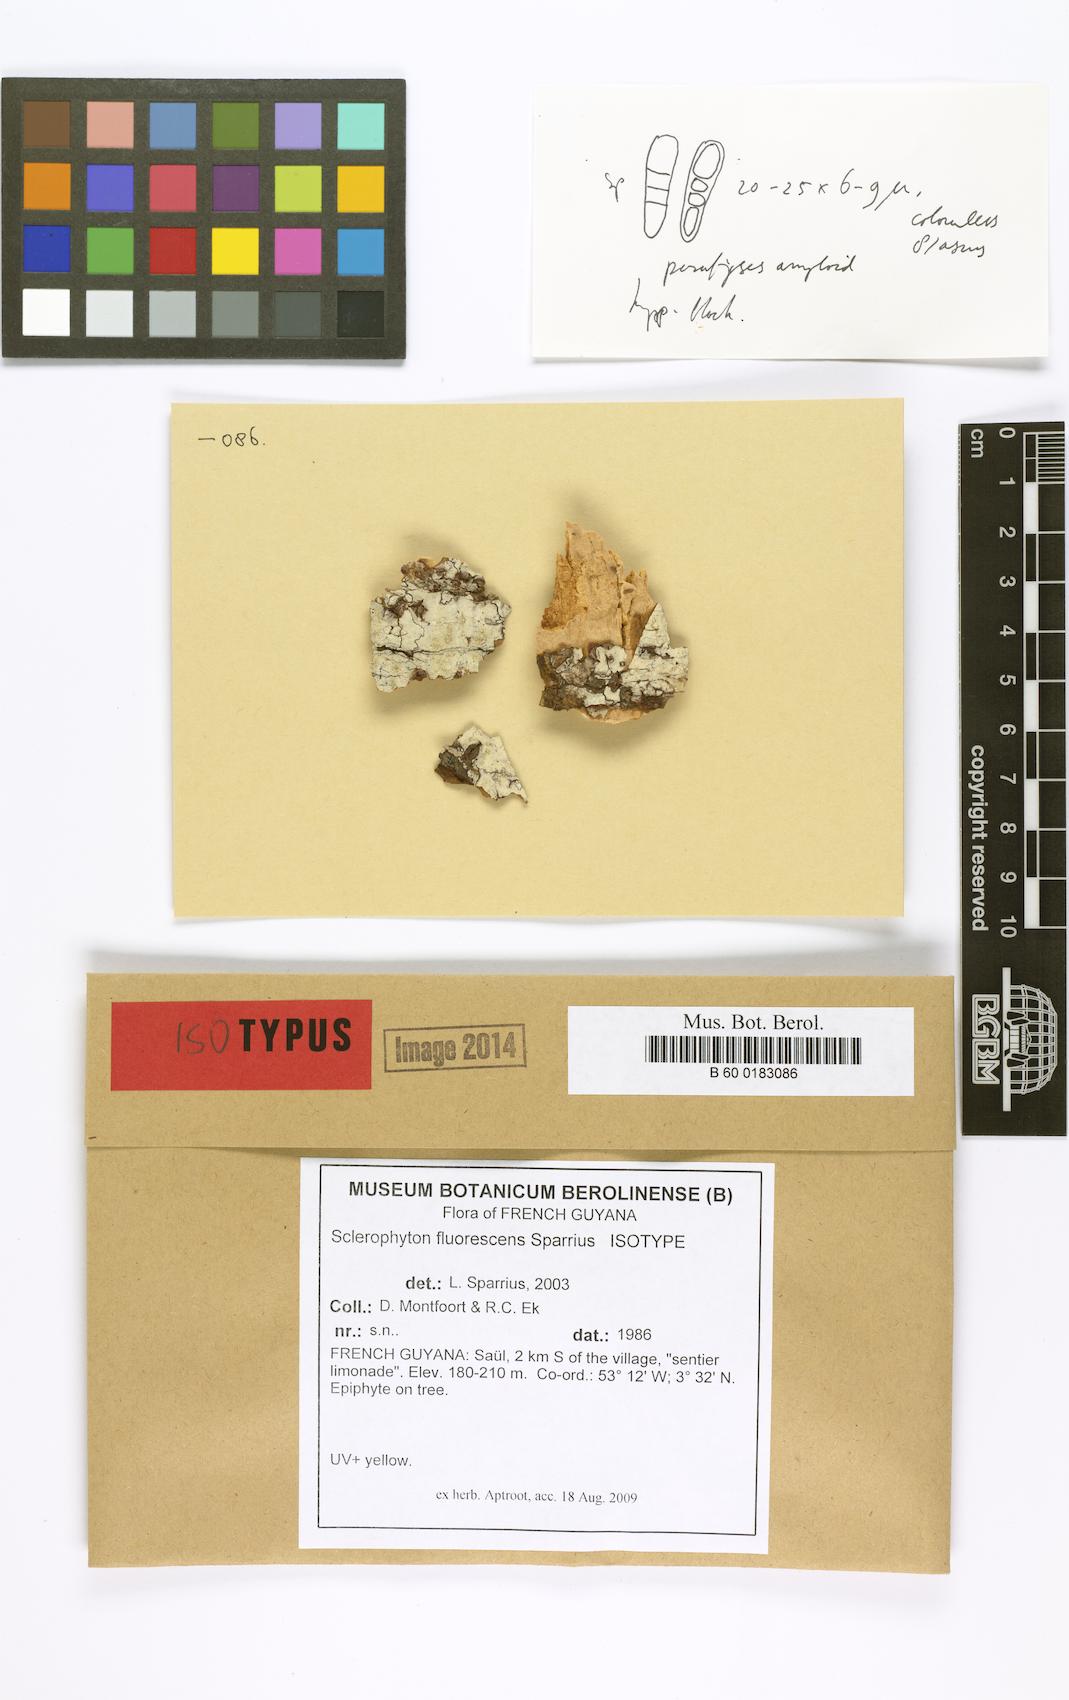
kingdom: Fungi
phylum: Ascomycota
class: Arthoniomycetes
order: Arthoniales
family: Opegraphaceae
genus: Sclerophyton
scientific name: Sclerophyton fluorescens
